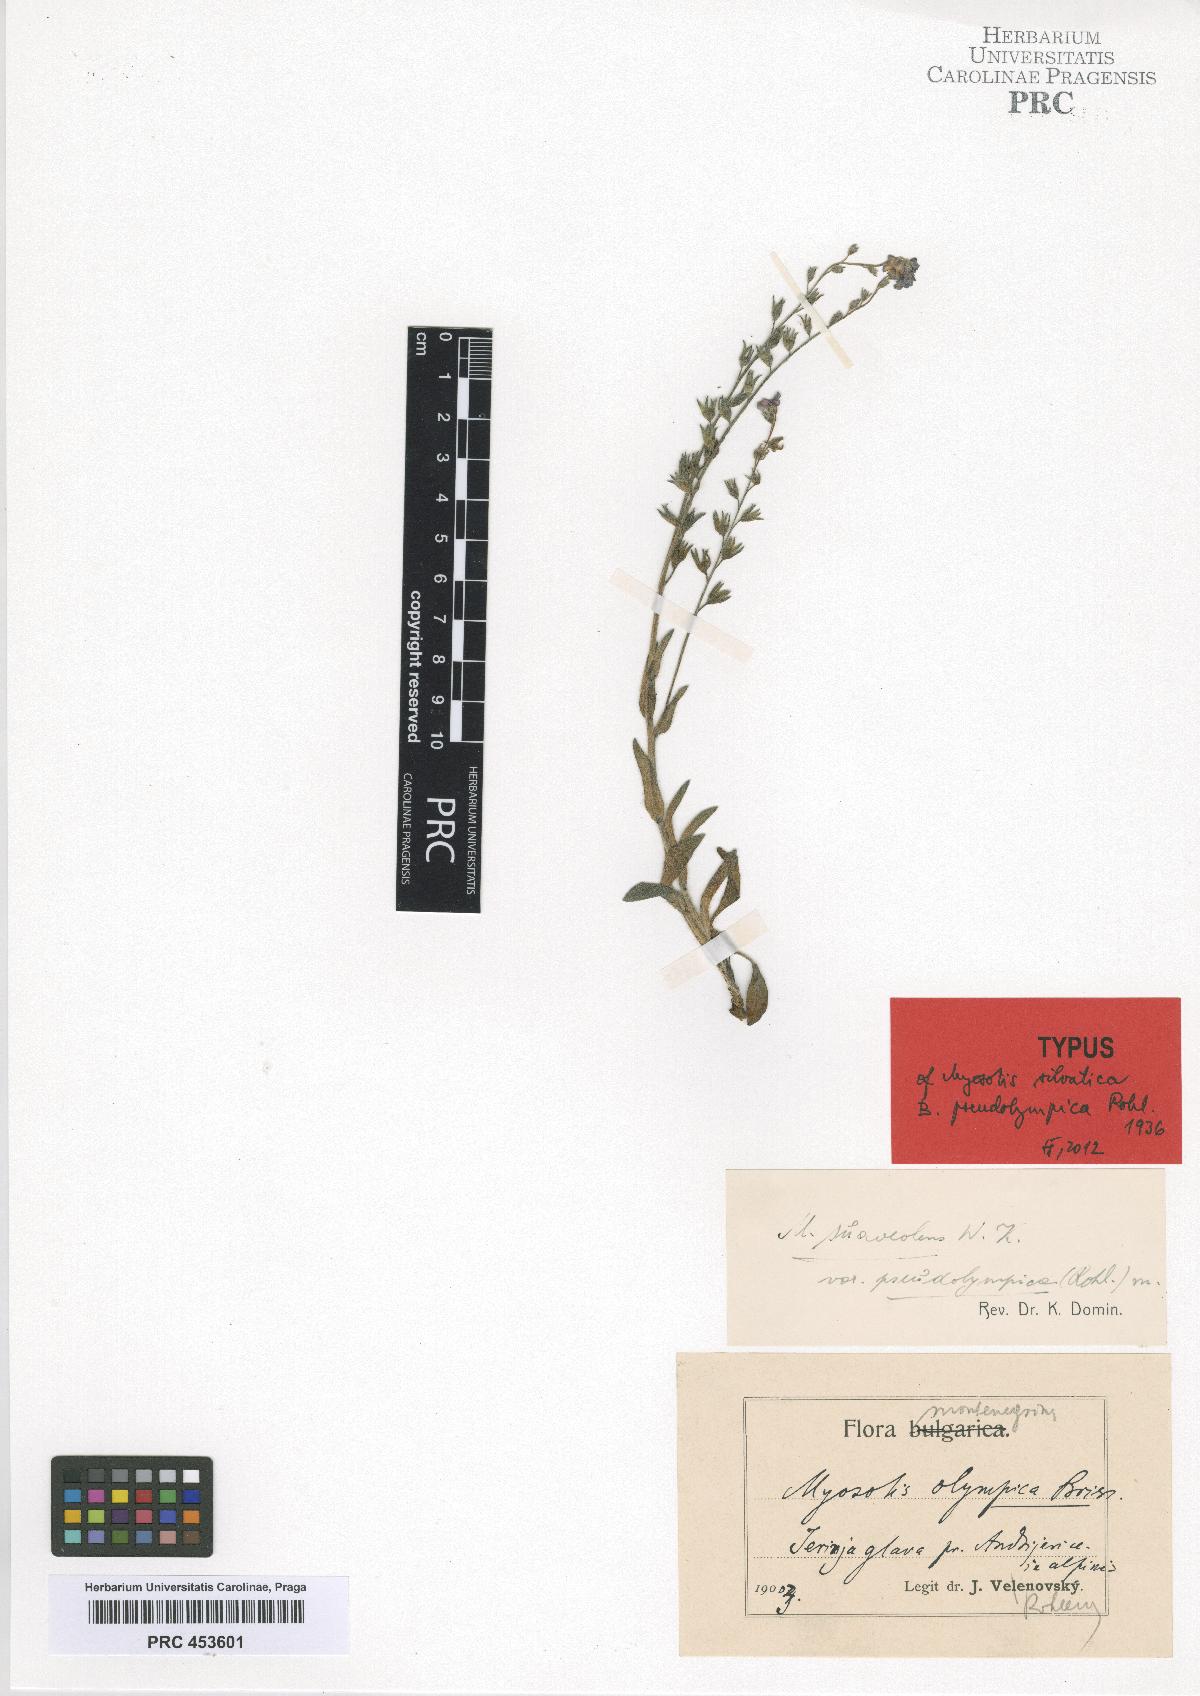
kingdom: Plantae
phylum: Tracheophyta
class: Magnoliopsida
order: Boraginales
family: Boraginaceae
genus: Myosotis
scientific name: Myosotis sylvatica
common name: Wood forget-me-not
